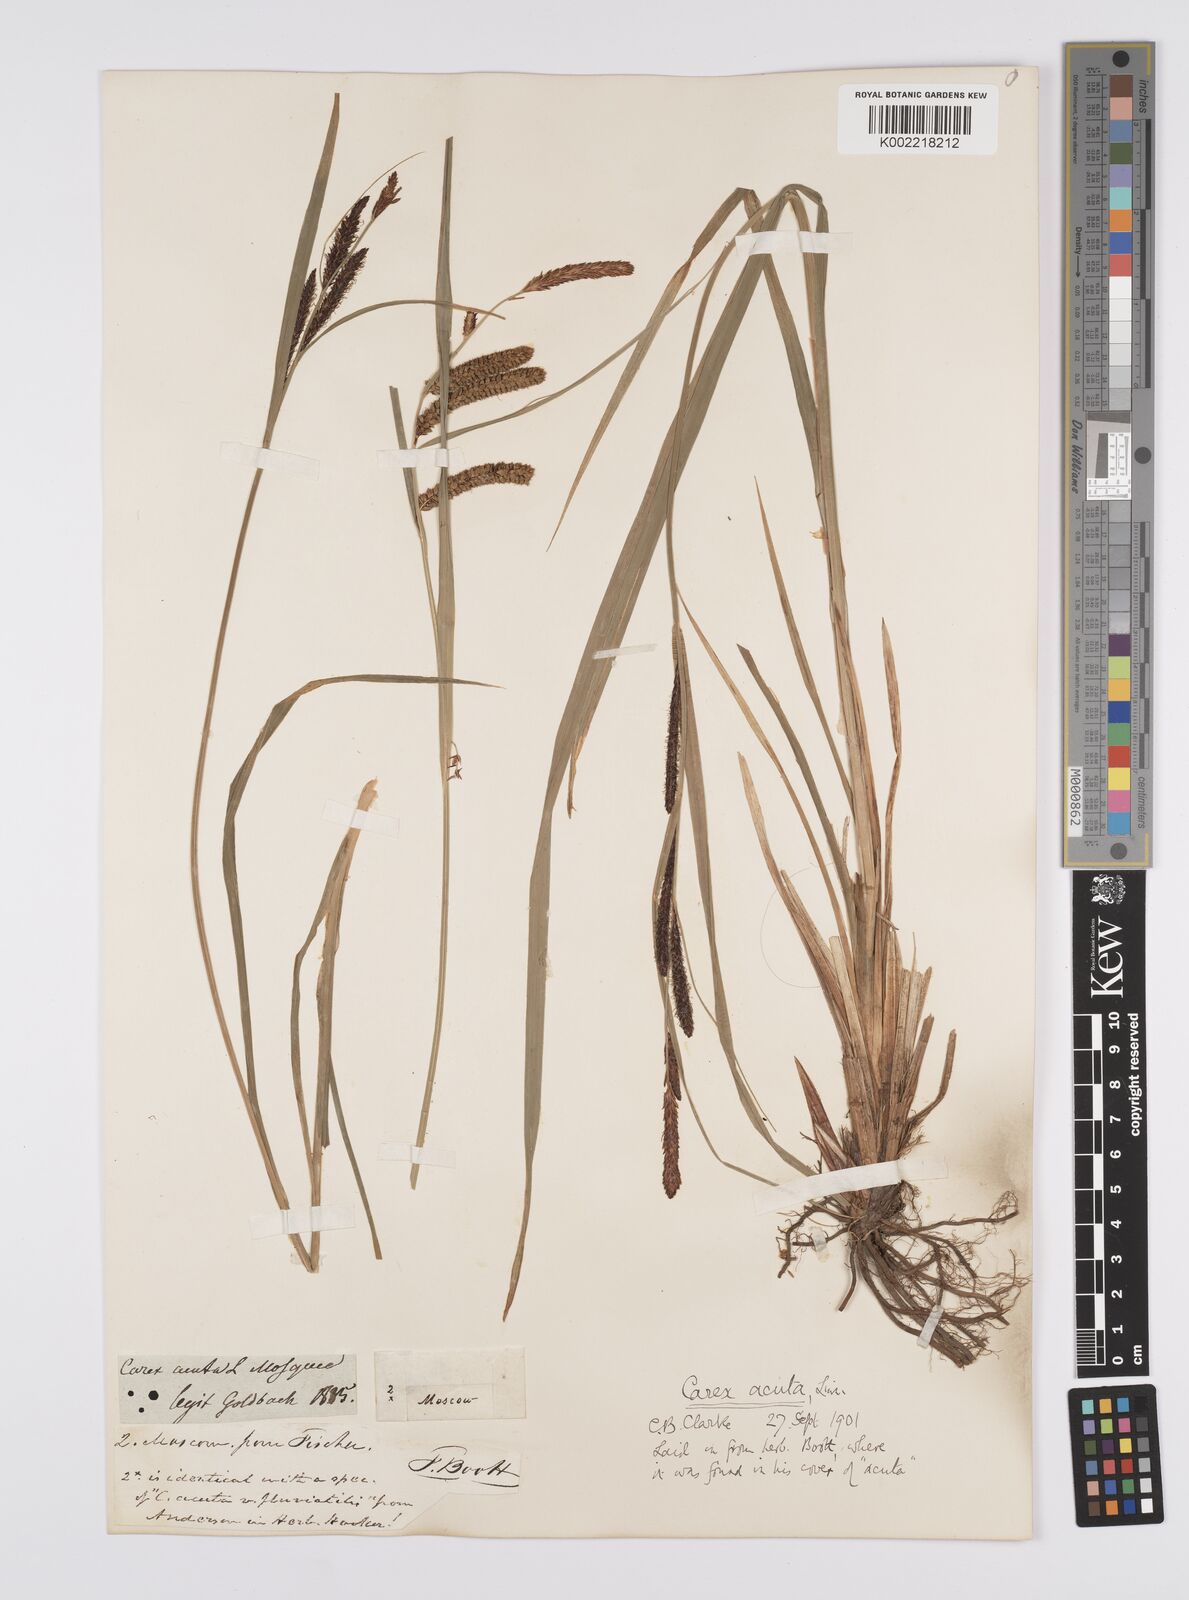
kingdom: Plantae
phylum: Tracheophyta
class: Liliopsida
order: Poales
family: Cyperaceae
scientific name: Cyperaceae
